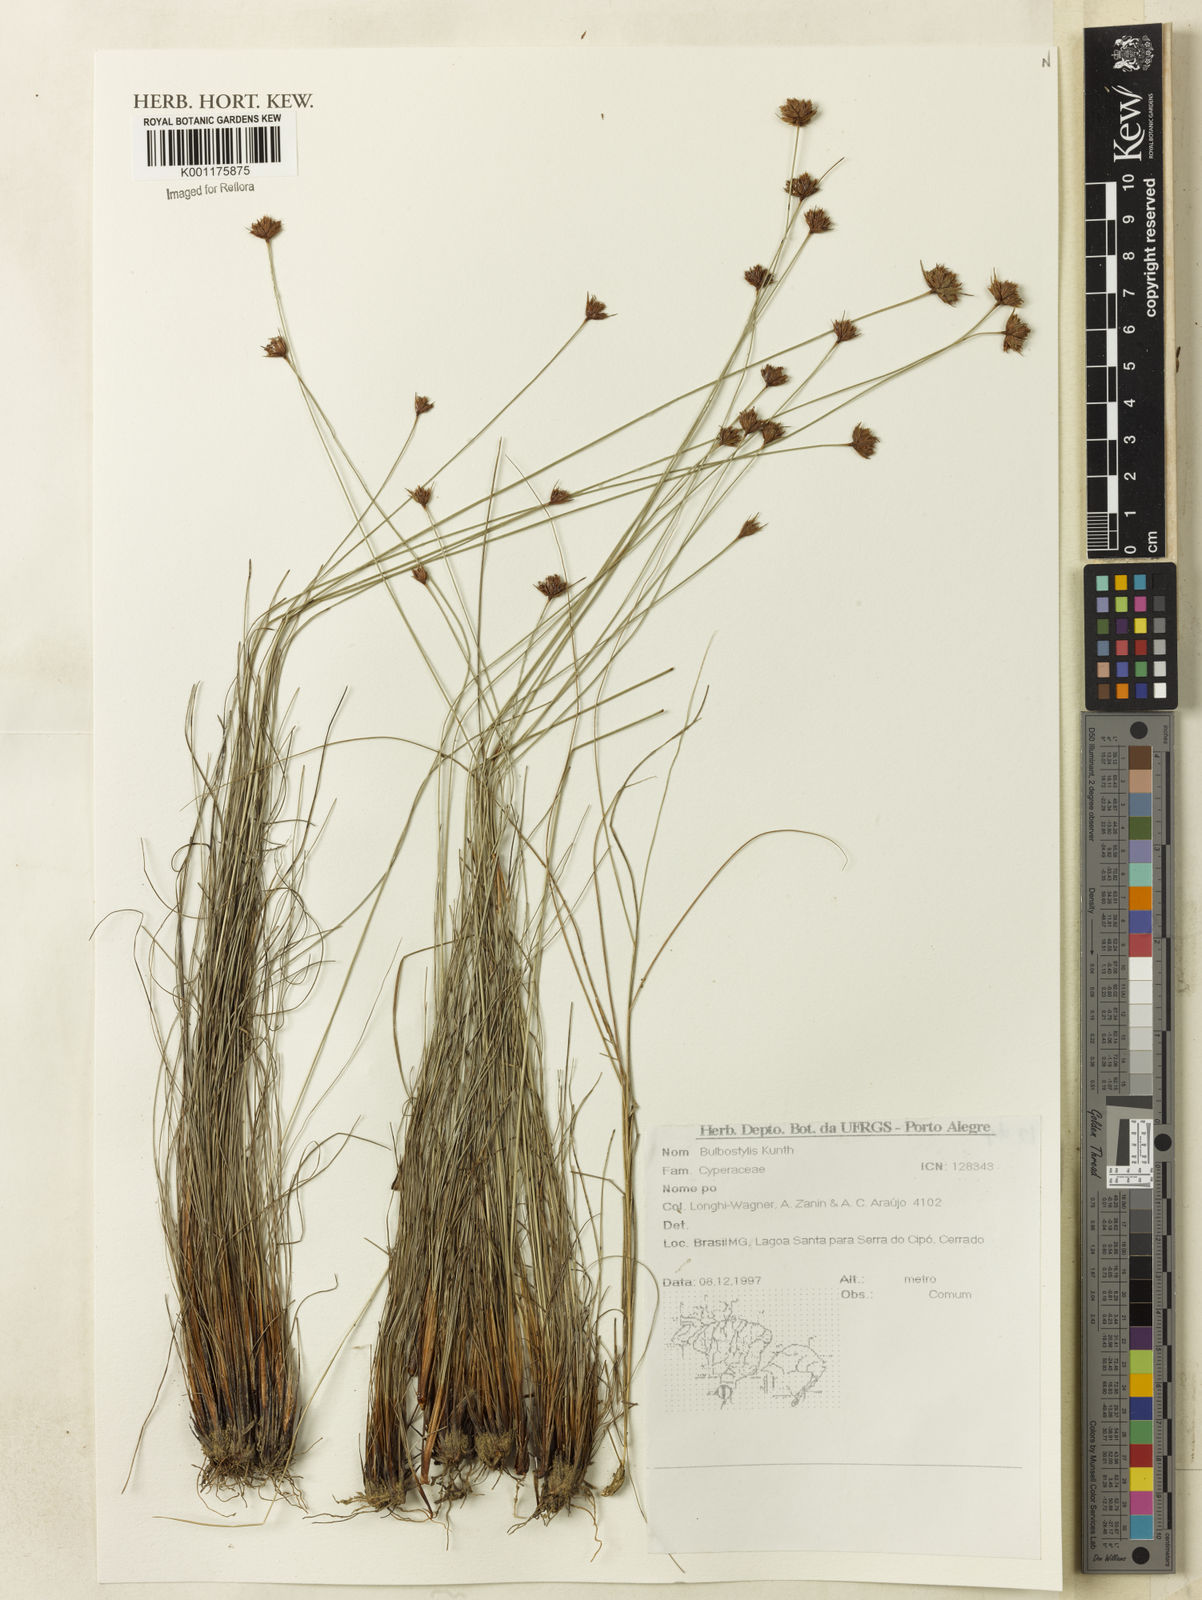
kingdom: Plantae
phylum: Tracheophyta
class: Liliopsida
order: Poales
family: Cyperaceae
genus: Bulbostylis
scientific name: Bulbostylis
